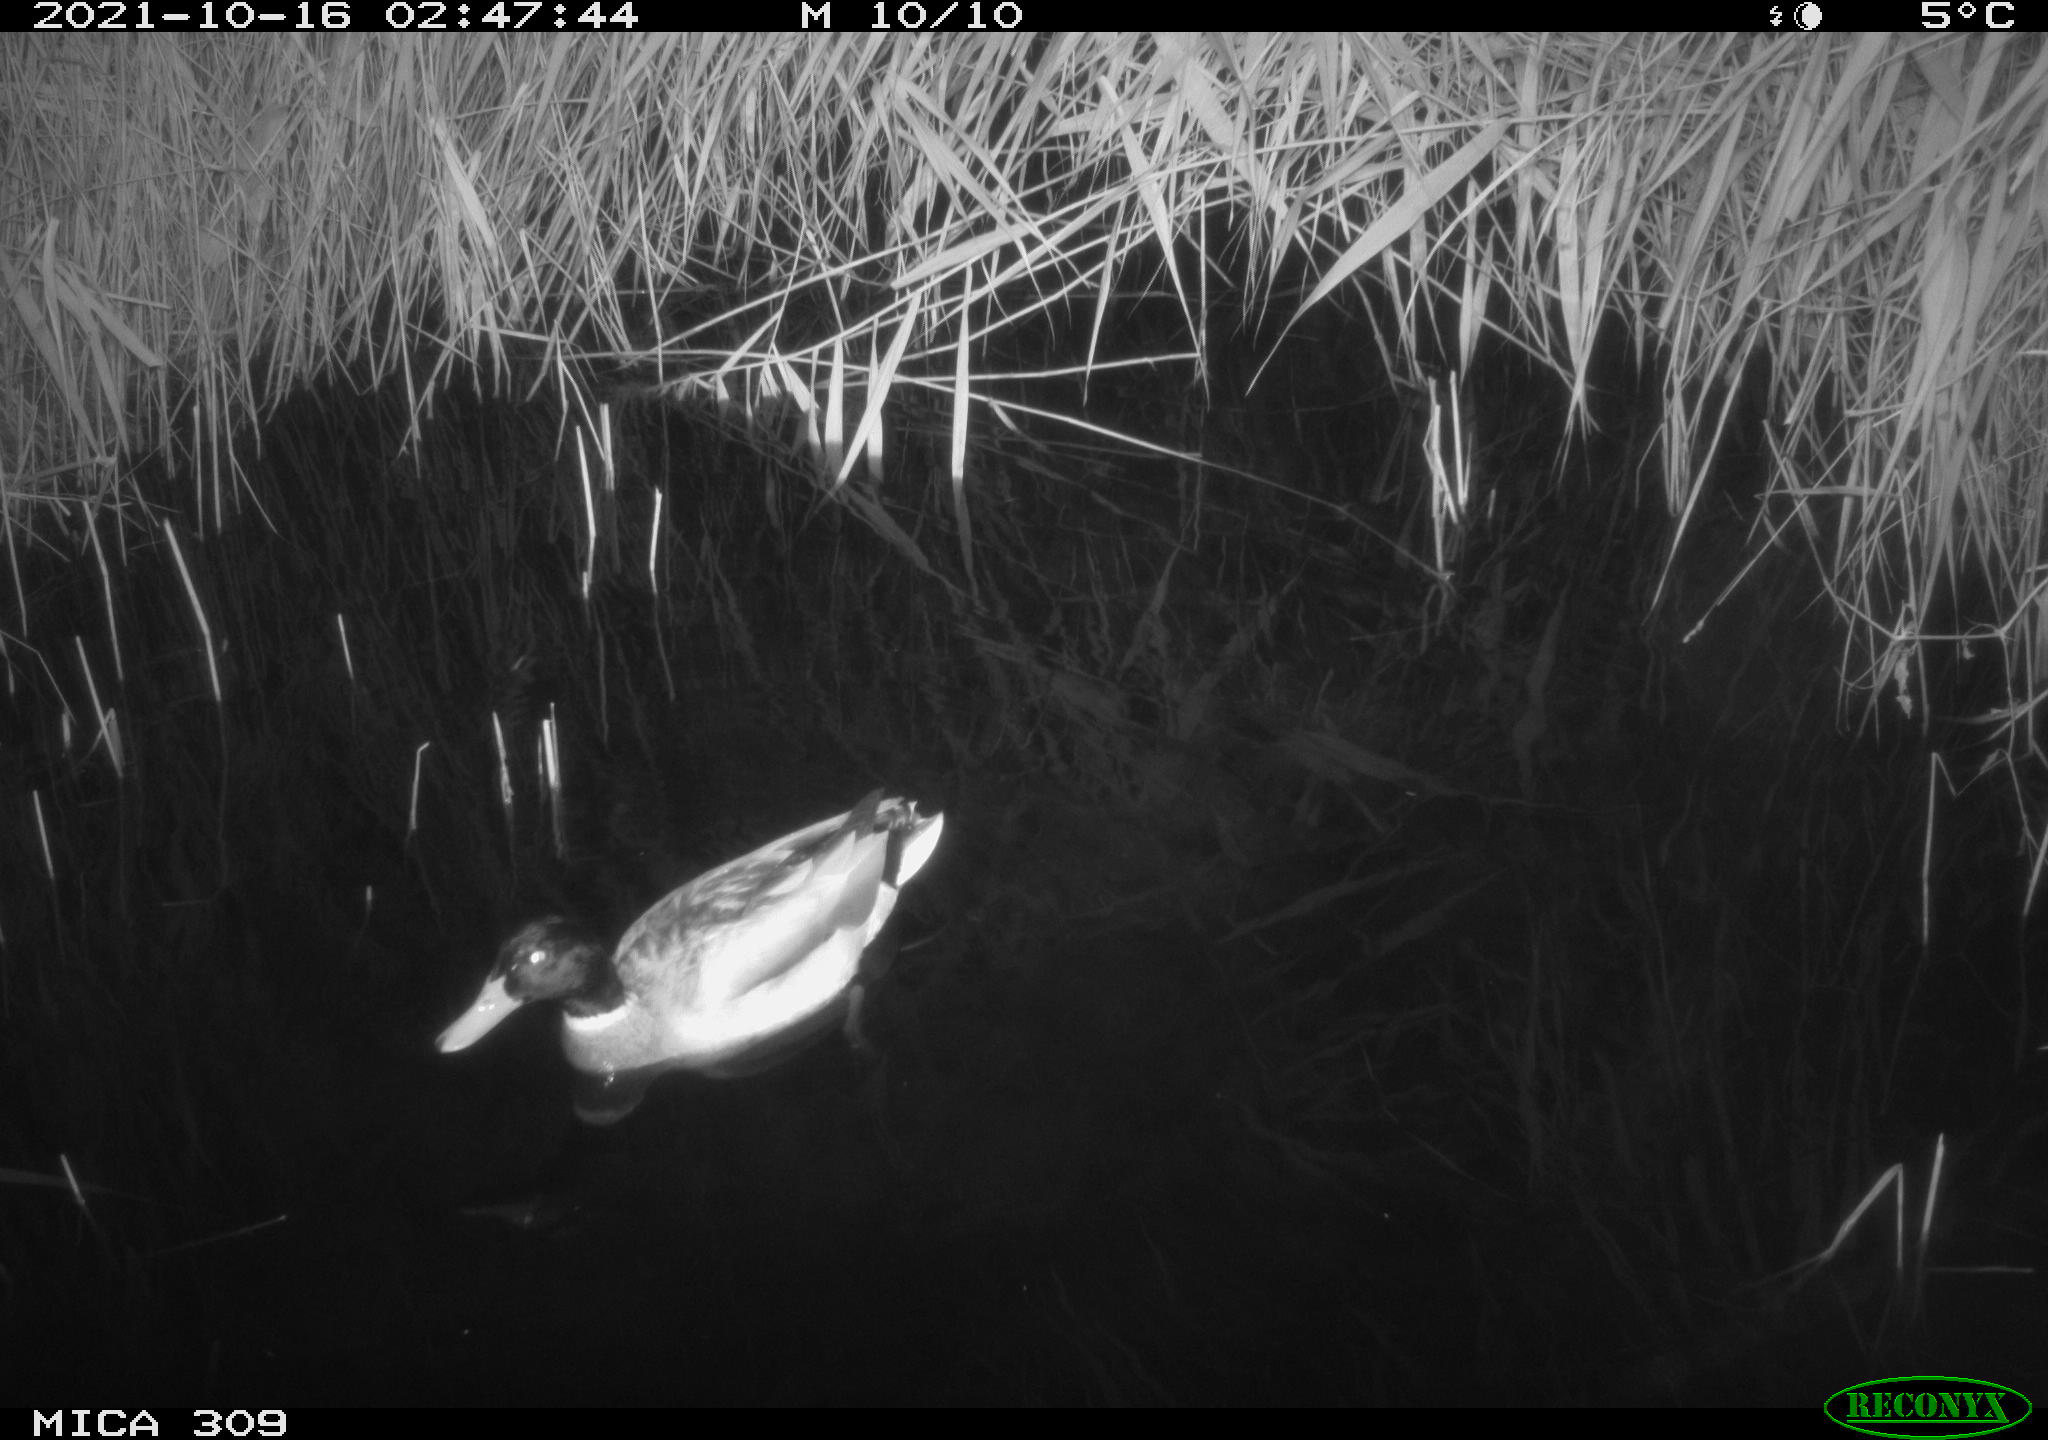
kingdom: Animalia
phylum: Chordata
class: Aves
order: Anseriformes
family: Anatidae
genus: Anas
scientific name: Anas platyrhynchos
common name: Mallard
